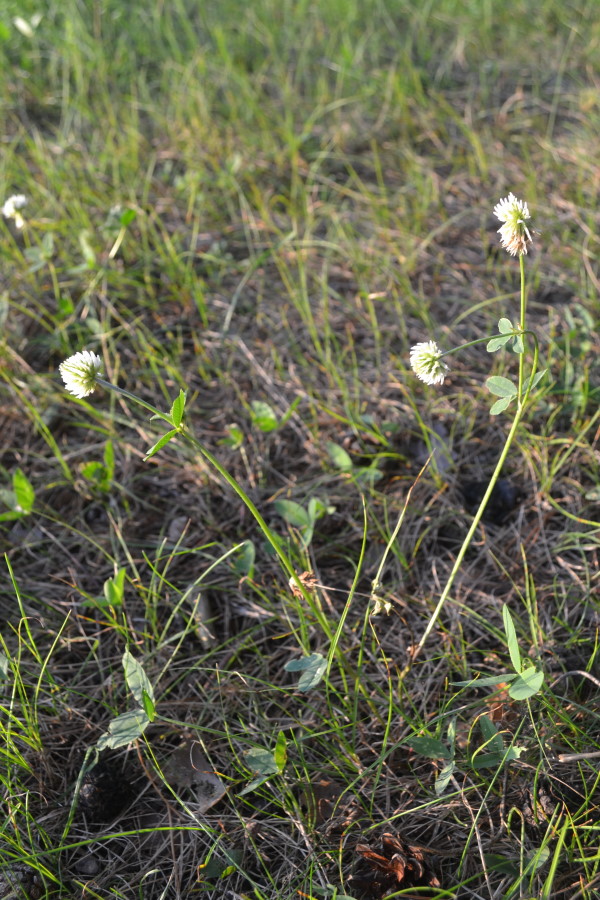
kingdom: Plantae
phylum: Tracheophyta
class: Magnoliopsida
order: Fabales
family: Fabaceae
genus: Trifolium
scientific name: Trifolium montanum
